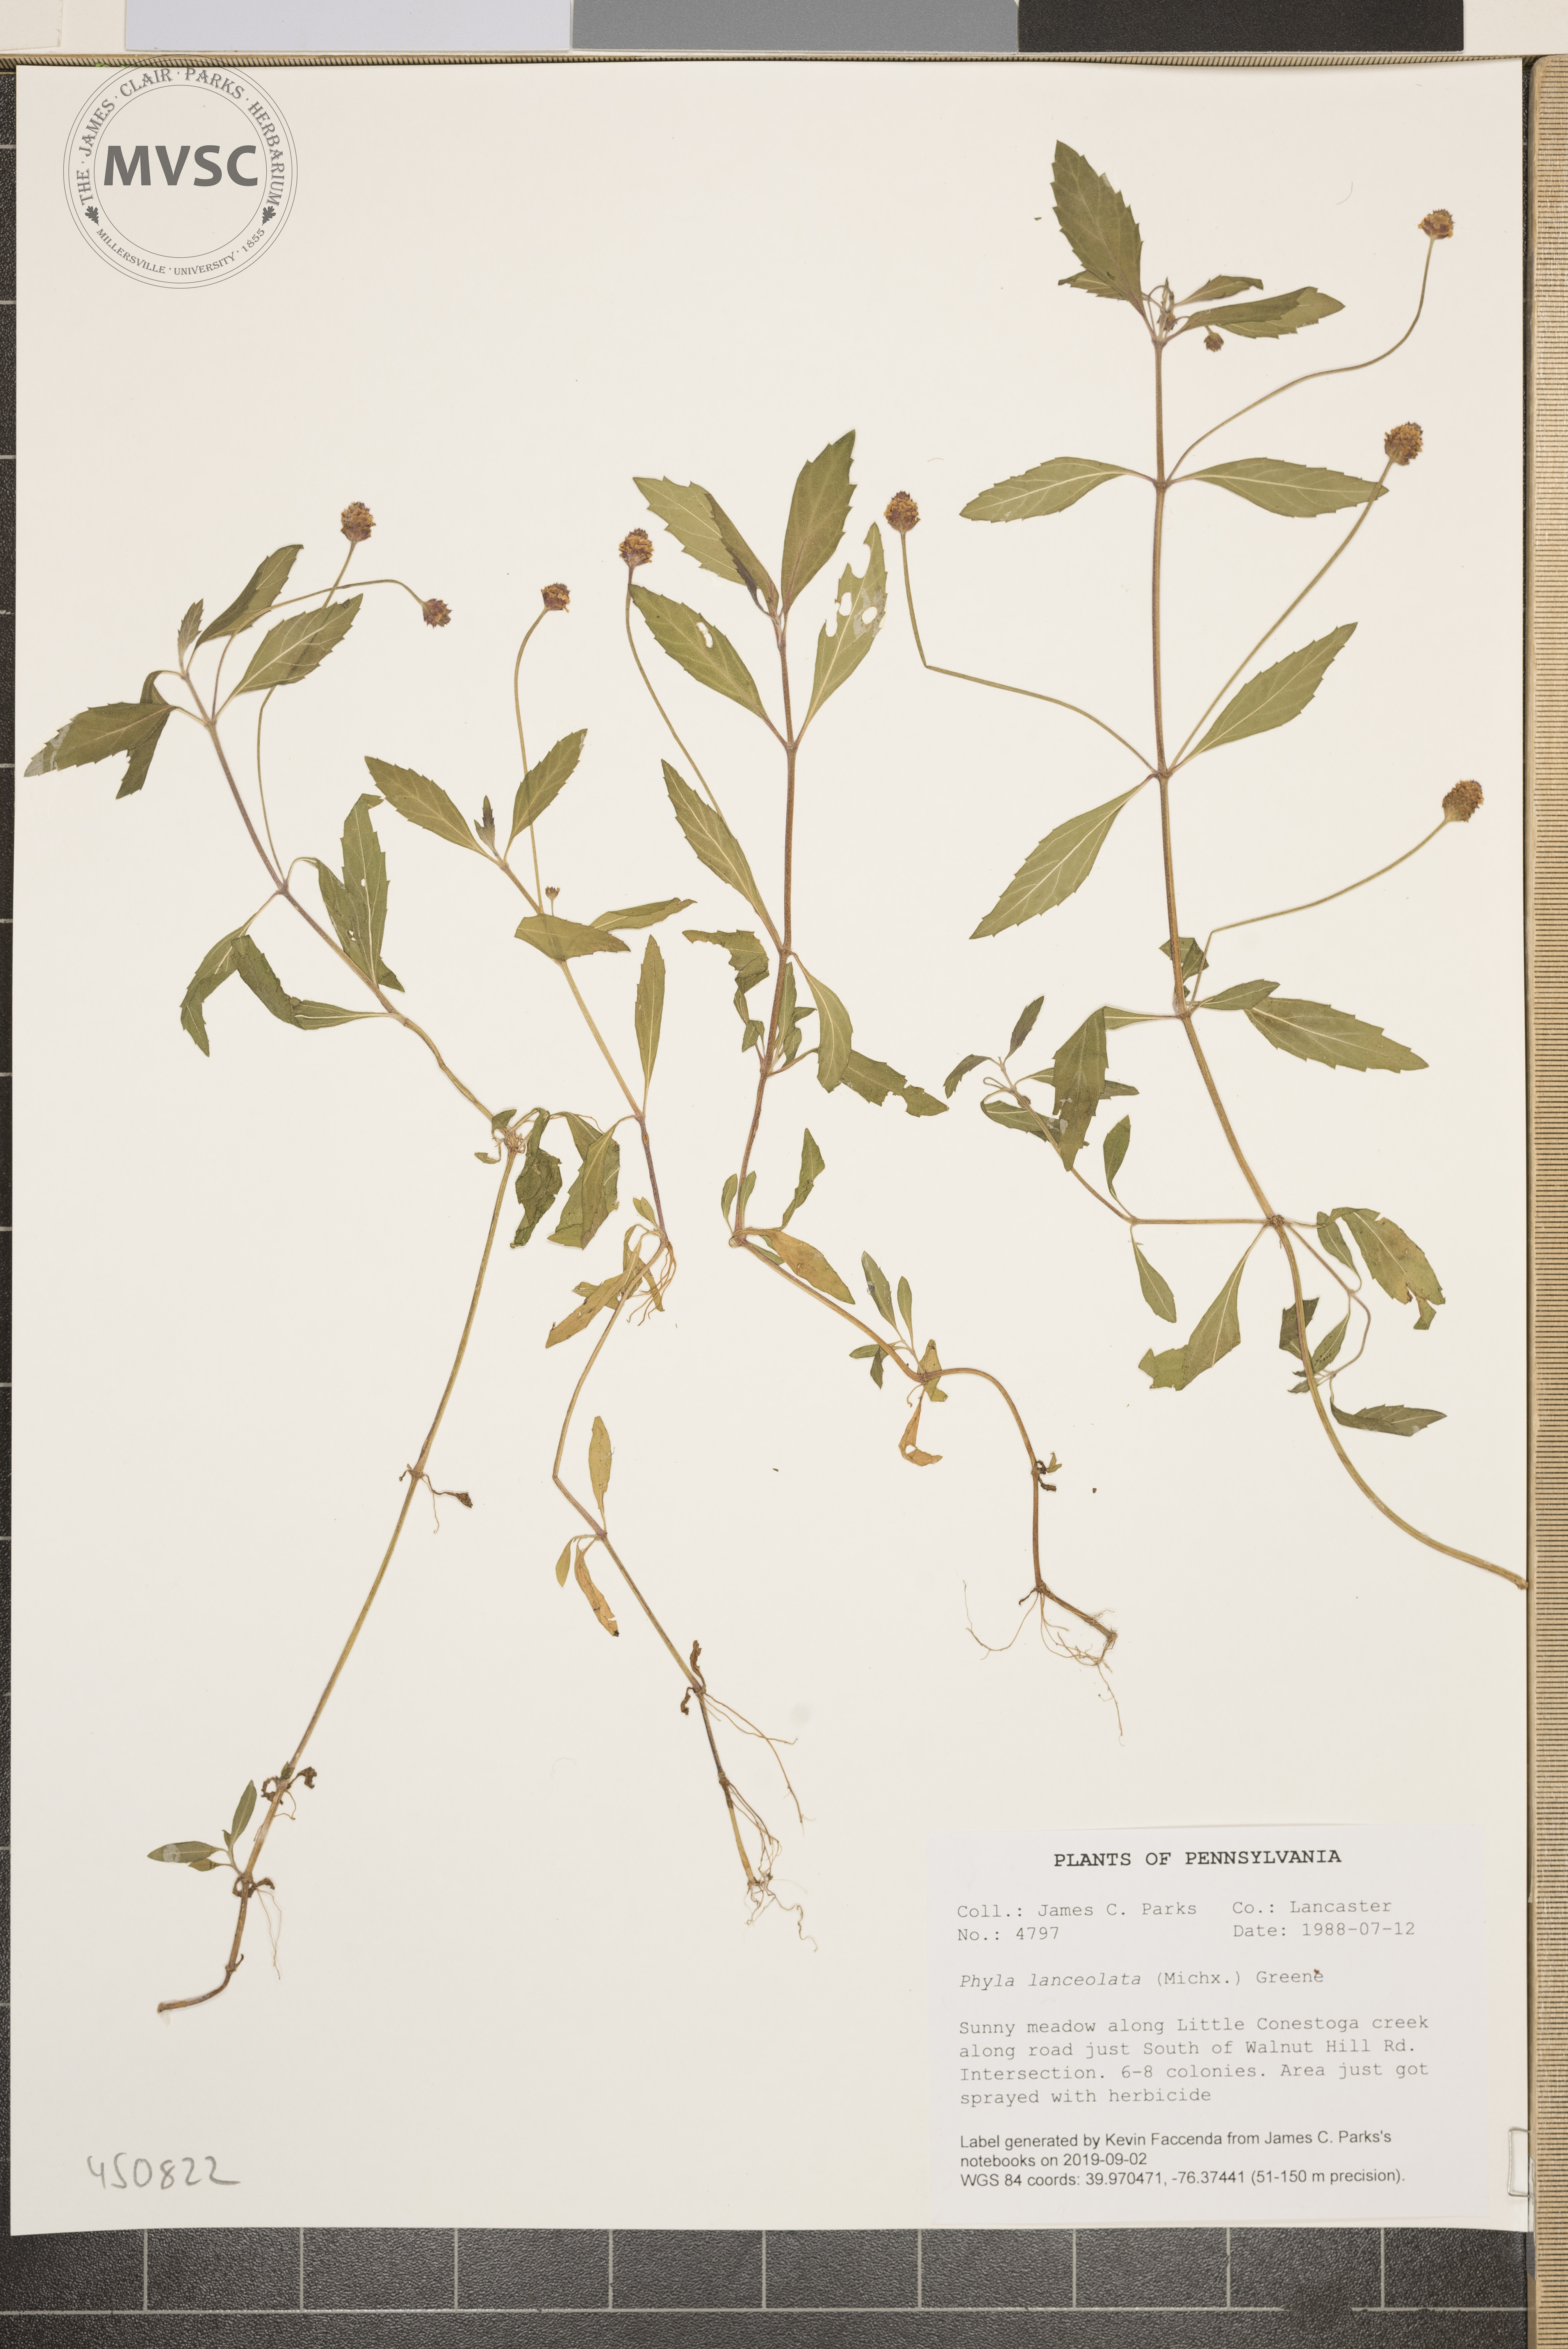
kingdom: Plantae
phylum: Tracheophyta
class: Magnoliopsida
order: Lamiales
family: Verbenaceae
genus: Phyla
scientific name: Phyla lanceolata
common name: Northern fogfruit
